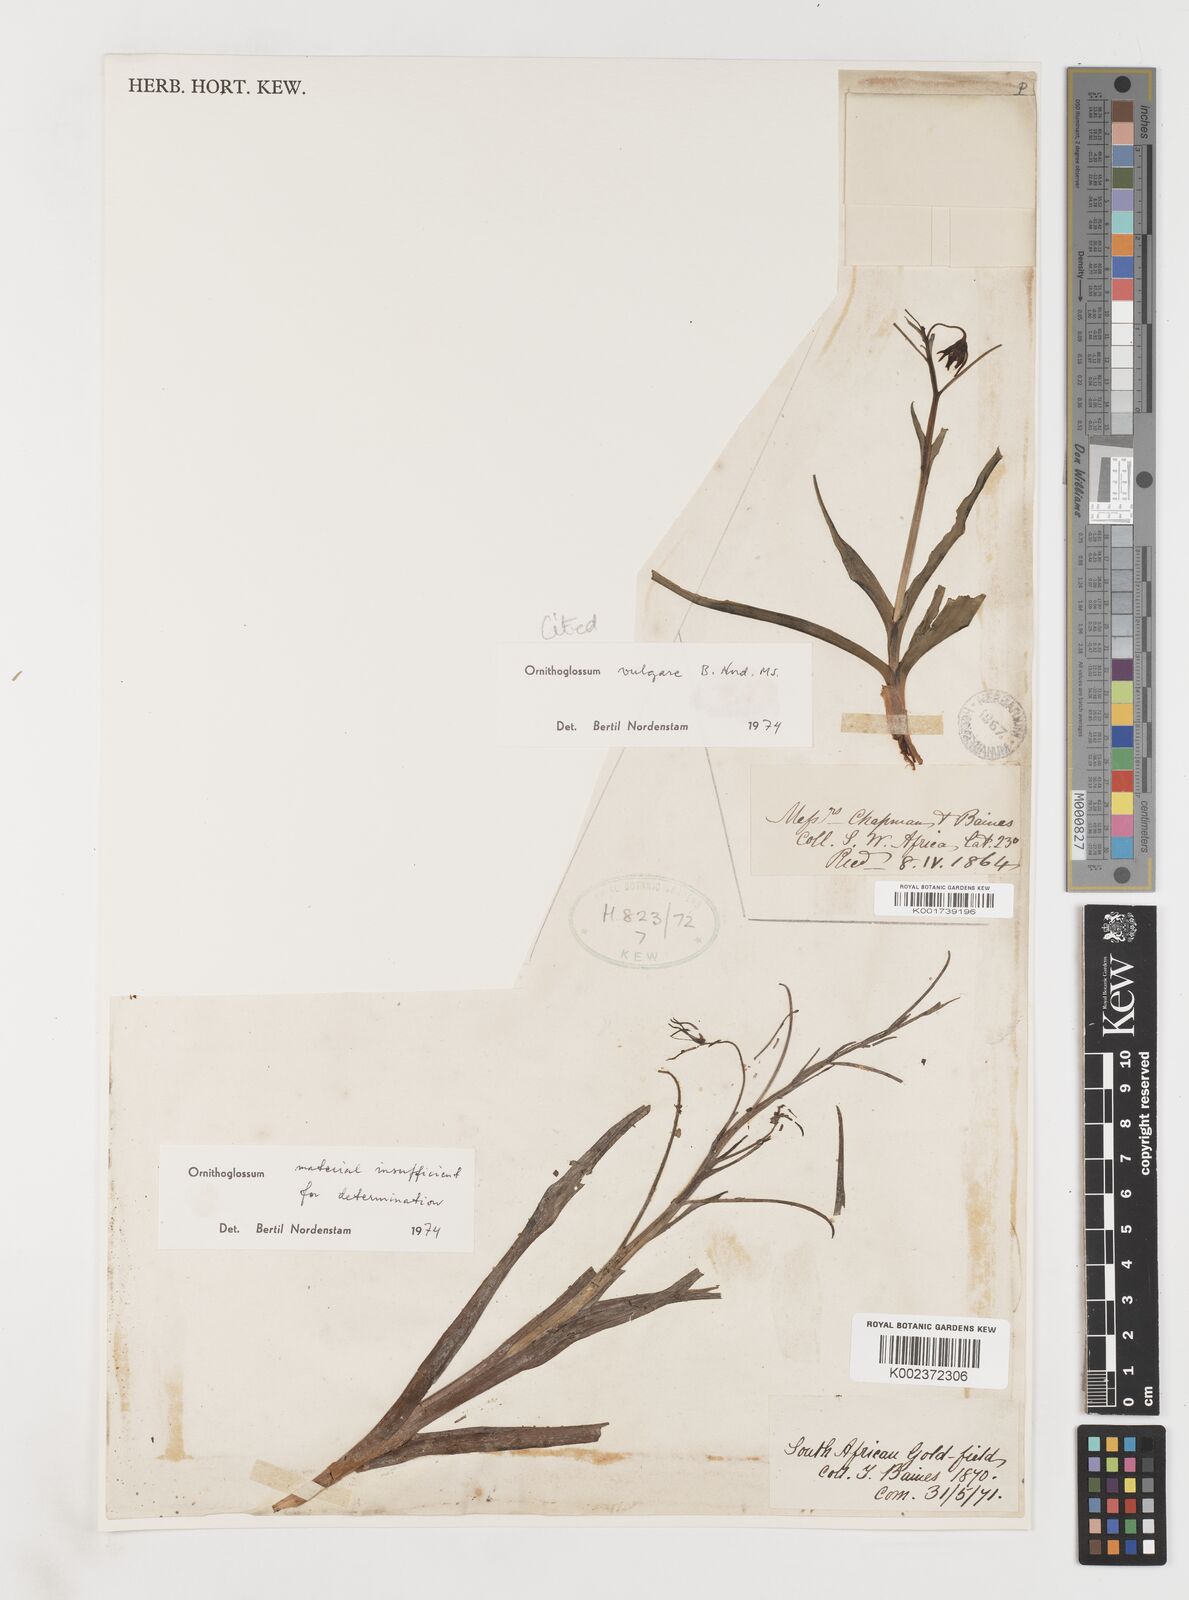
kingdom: Plantae
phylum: Tracheophyta
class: Liliopsida
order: Liliales
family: Colchicaceae
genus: Ornithoglossum
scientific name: Ornithoglossum vulgare
